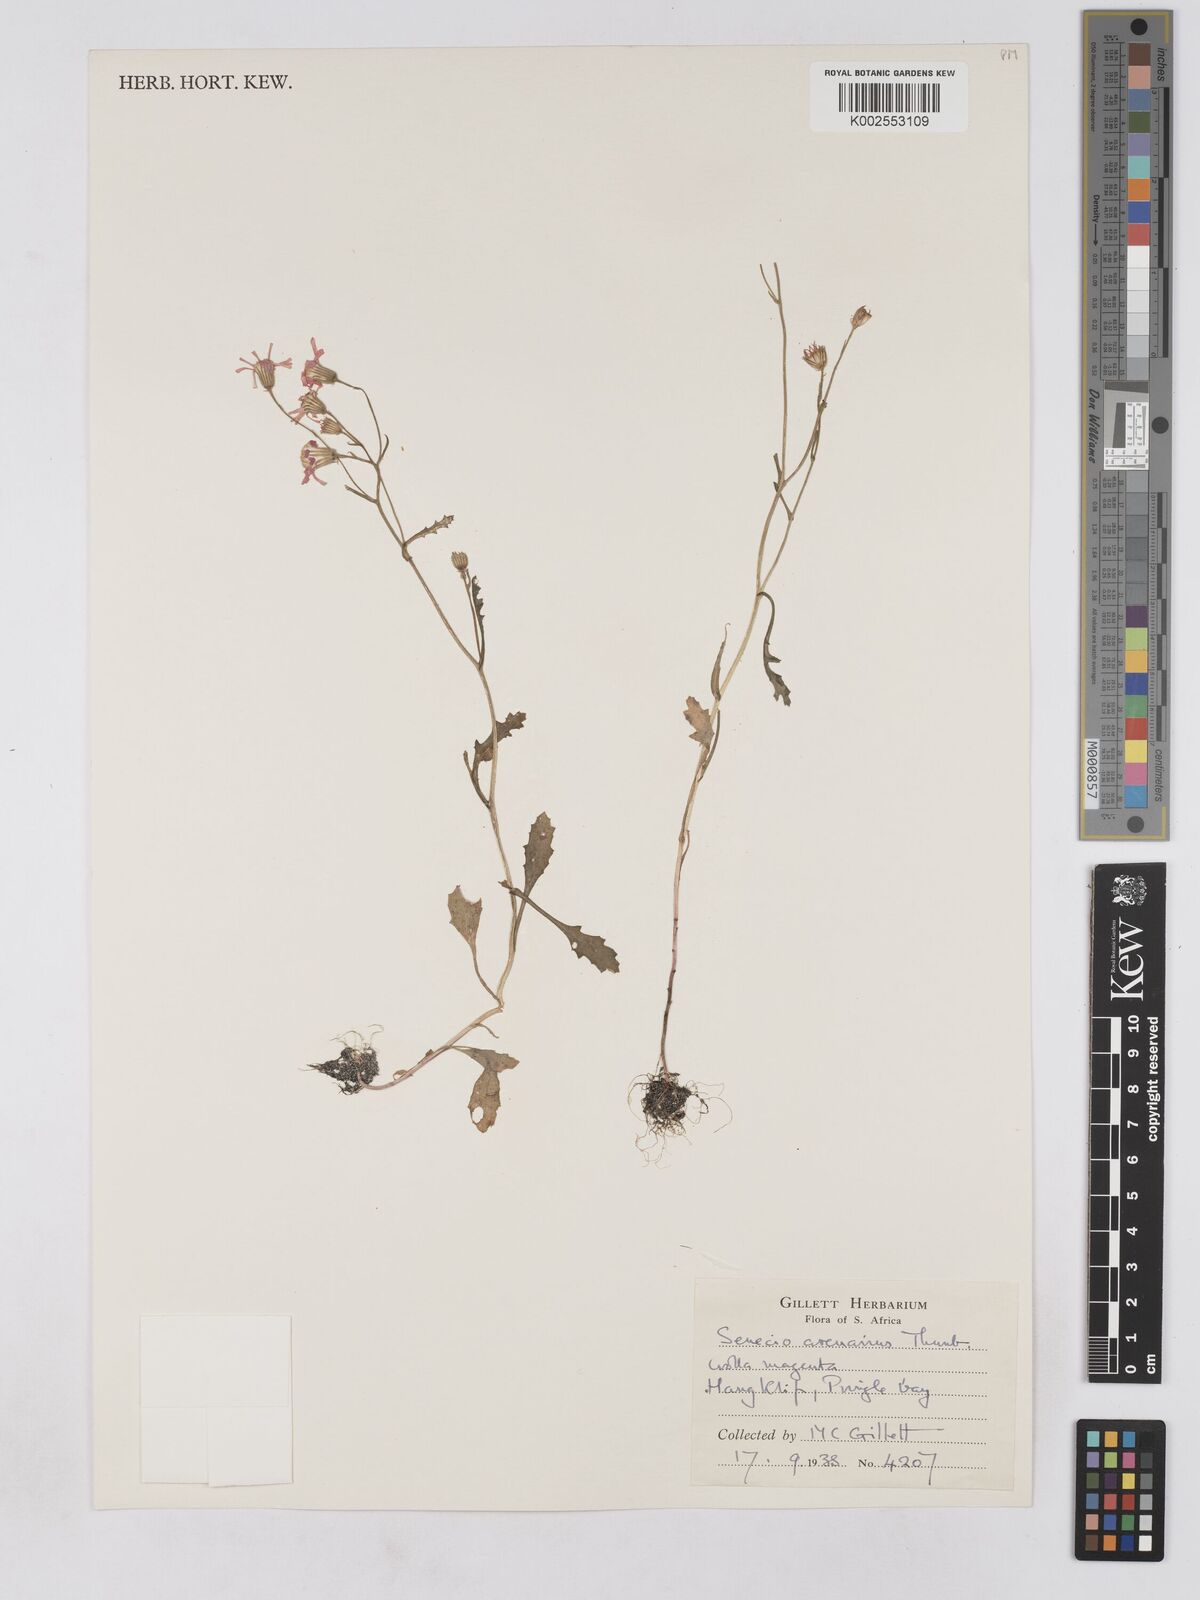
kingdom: Plantae
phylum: Tracheophyta
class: Magnoliopsida
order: Asterales
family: Asteraceae
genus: Senecio
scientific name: Senecio arenarius
